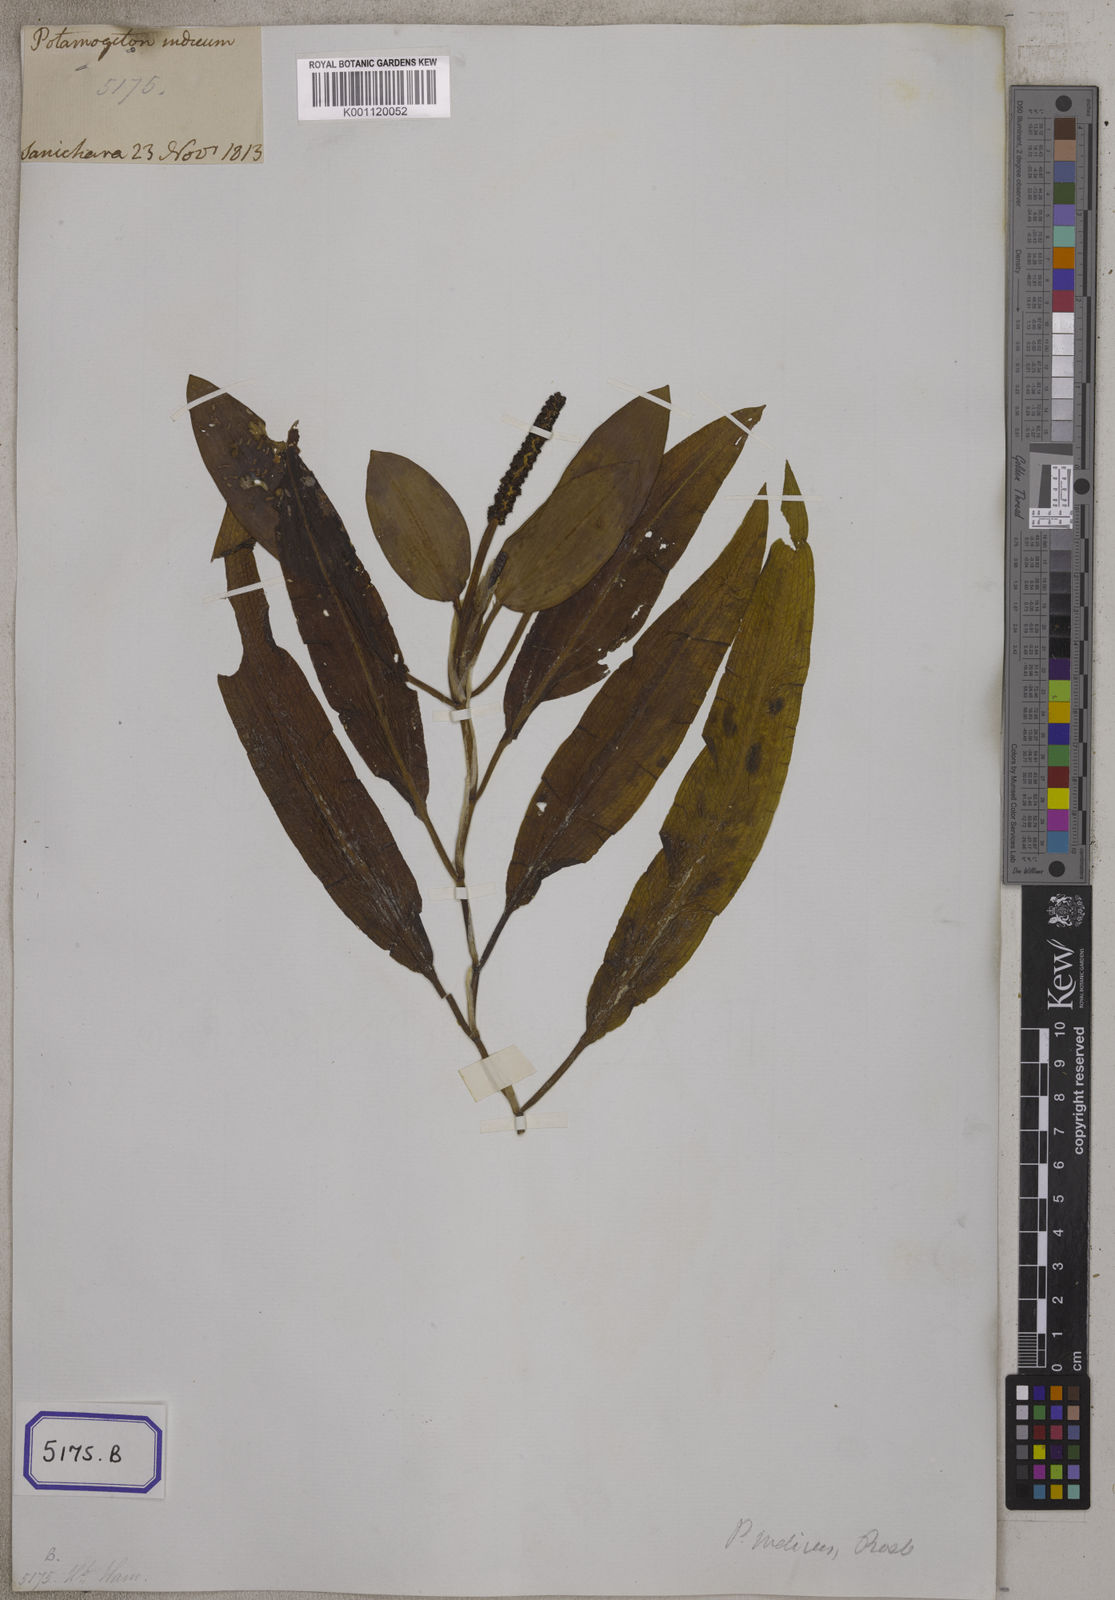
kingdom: Plantae
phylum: Tracheophyta
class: Liliopsida
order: Alismatales
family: Potamogetonaceae
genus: Potamogeton
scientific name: Potamogeton nodosus
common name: Loddon pondweed
